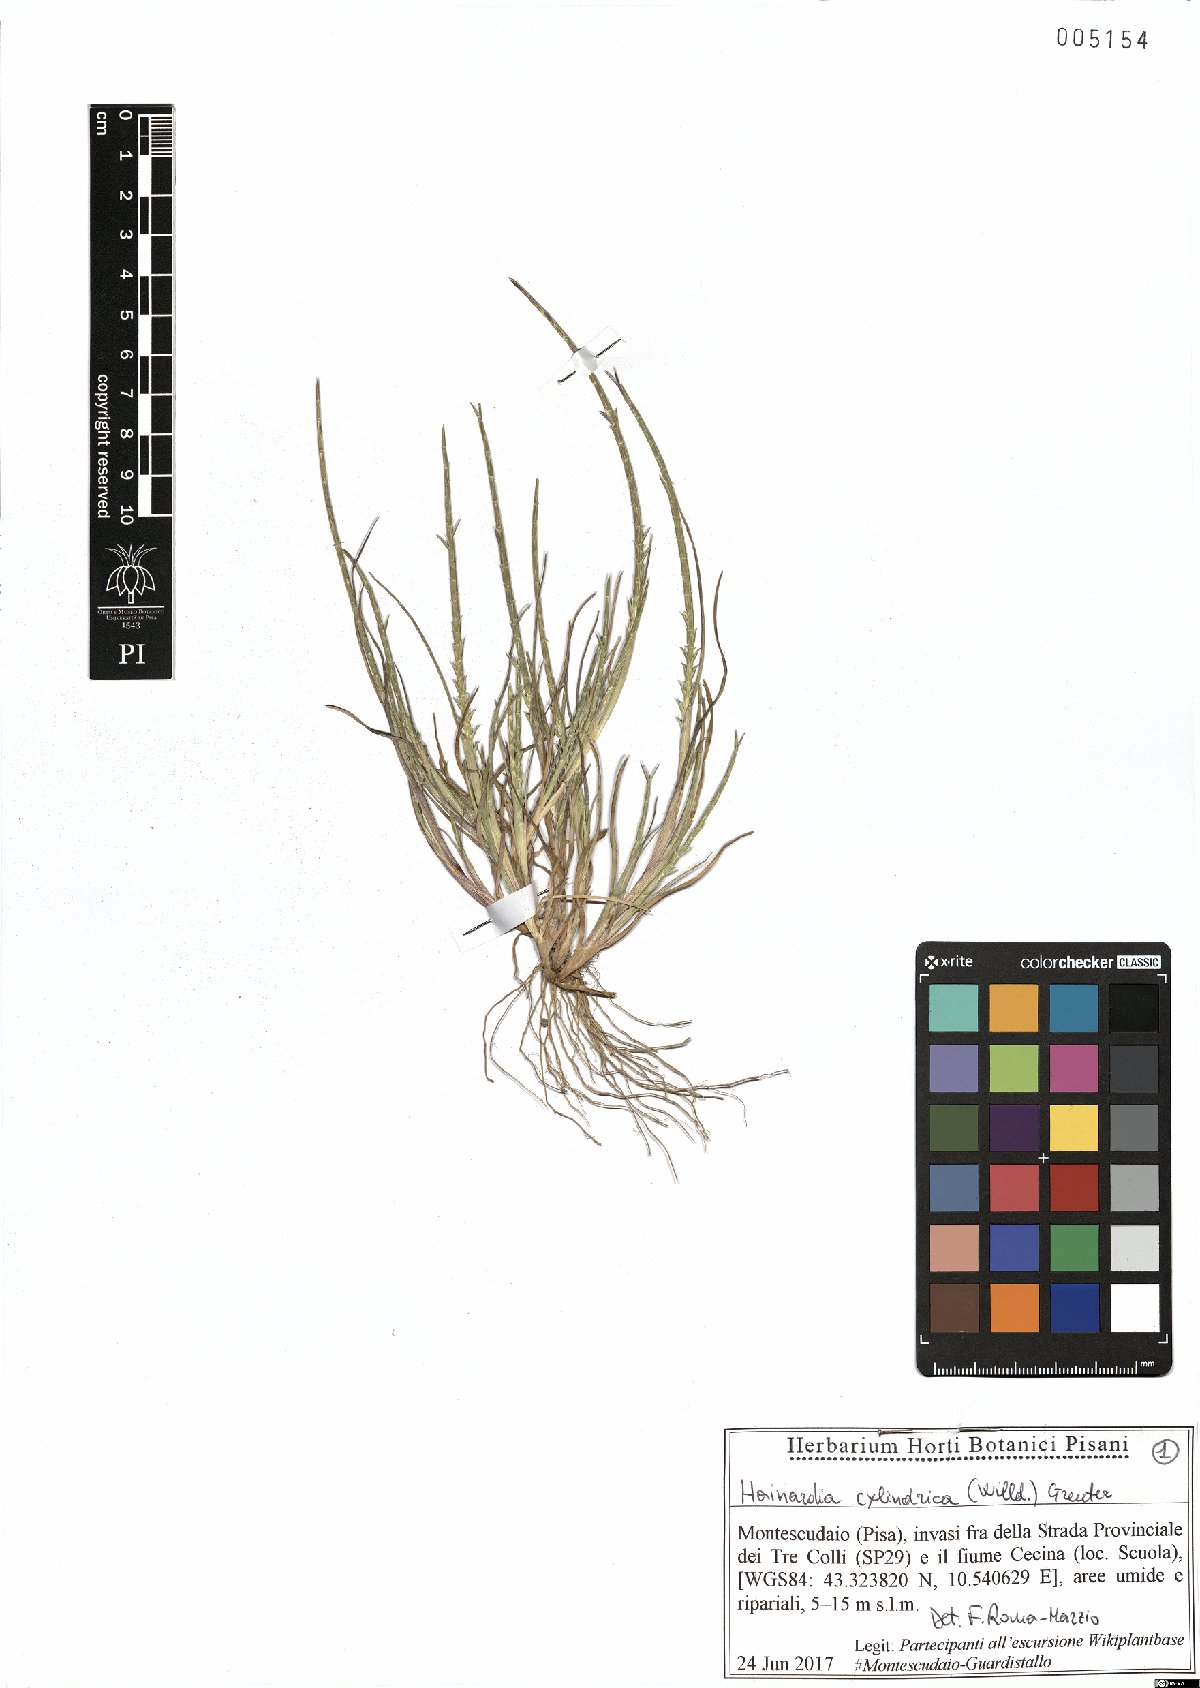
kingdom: Plantae
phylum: Tracheophyta
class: Liliopsida
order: Poales
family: Poaceae
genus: Parapholis
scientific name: Parapholis cylindrica
